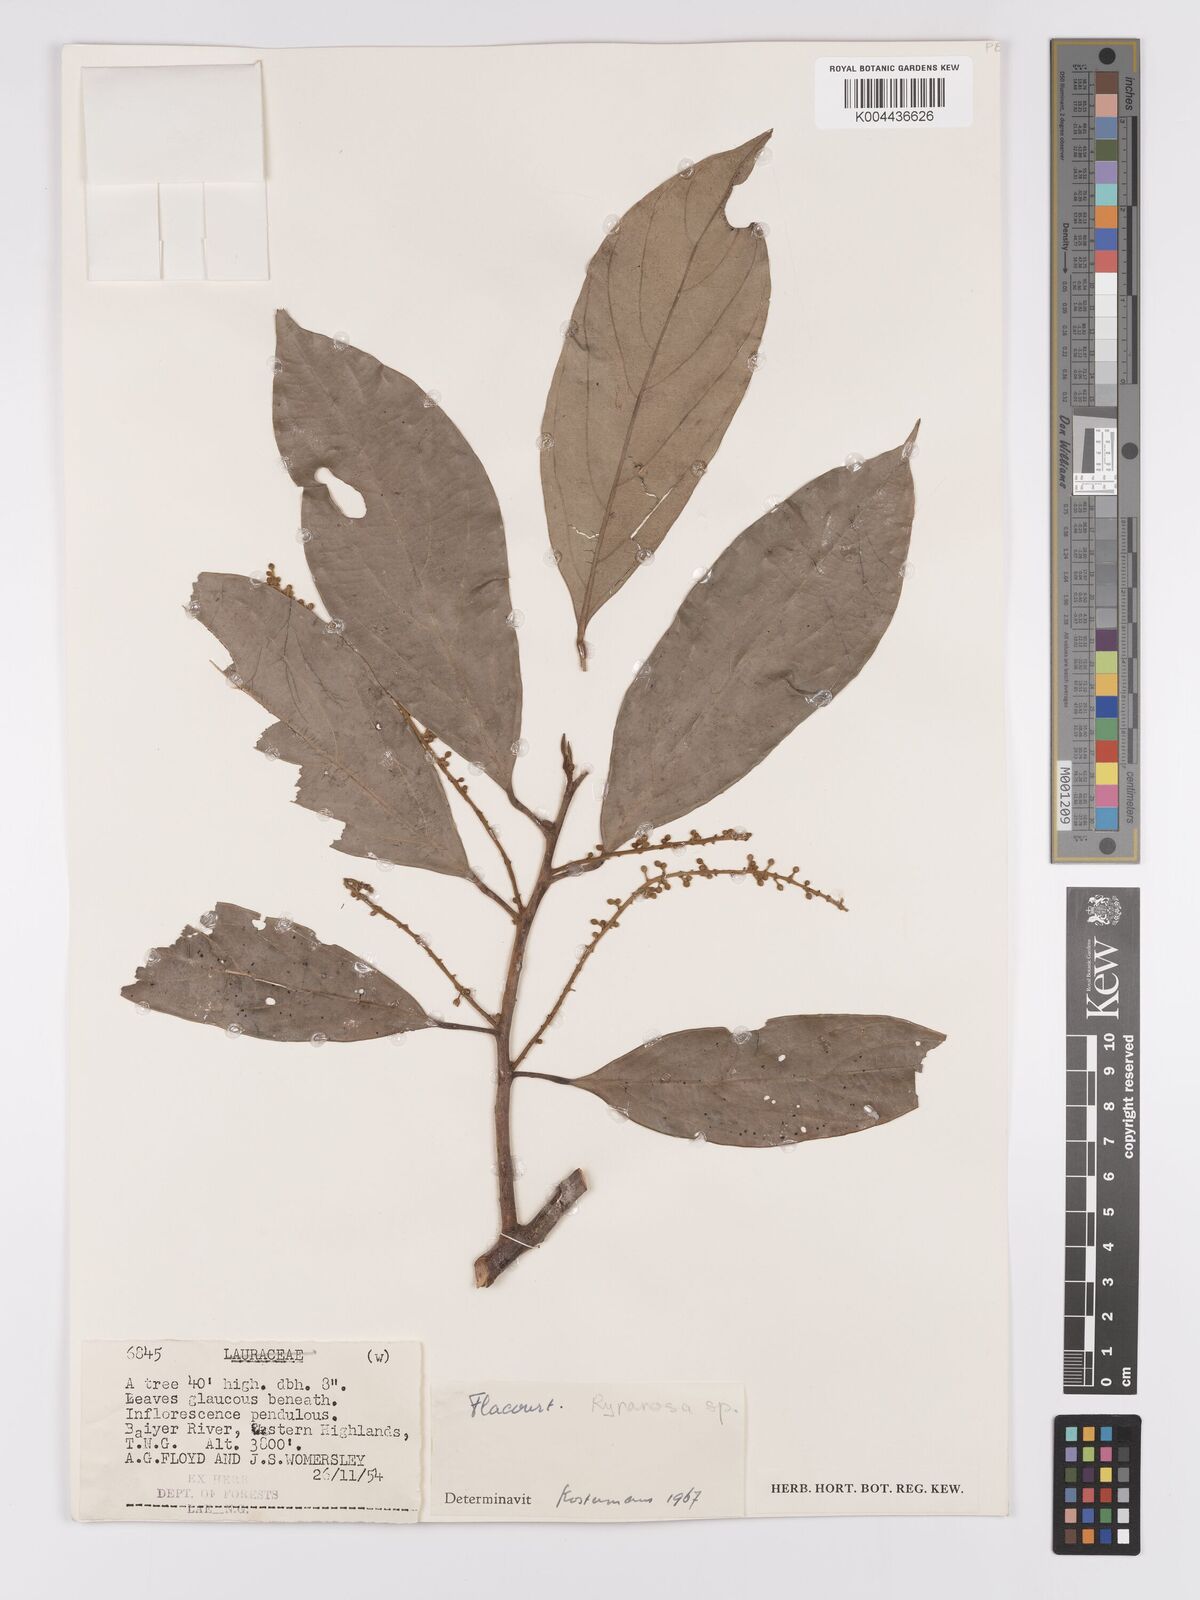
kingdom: Plantae
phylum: Tracheophyta
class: Magnoliopsida
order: Malpighiales
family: Achariaceae
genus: Ryparosa
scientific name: Ryparosa
